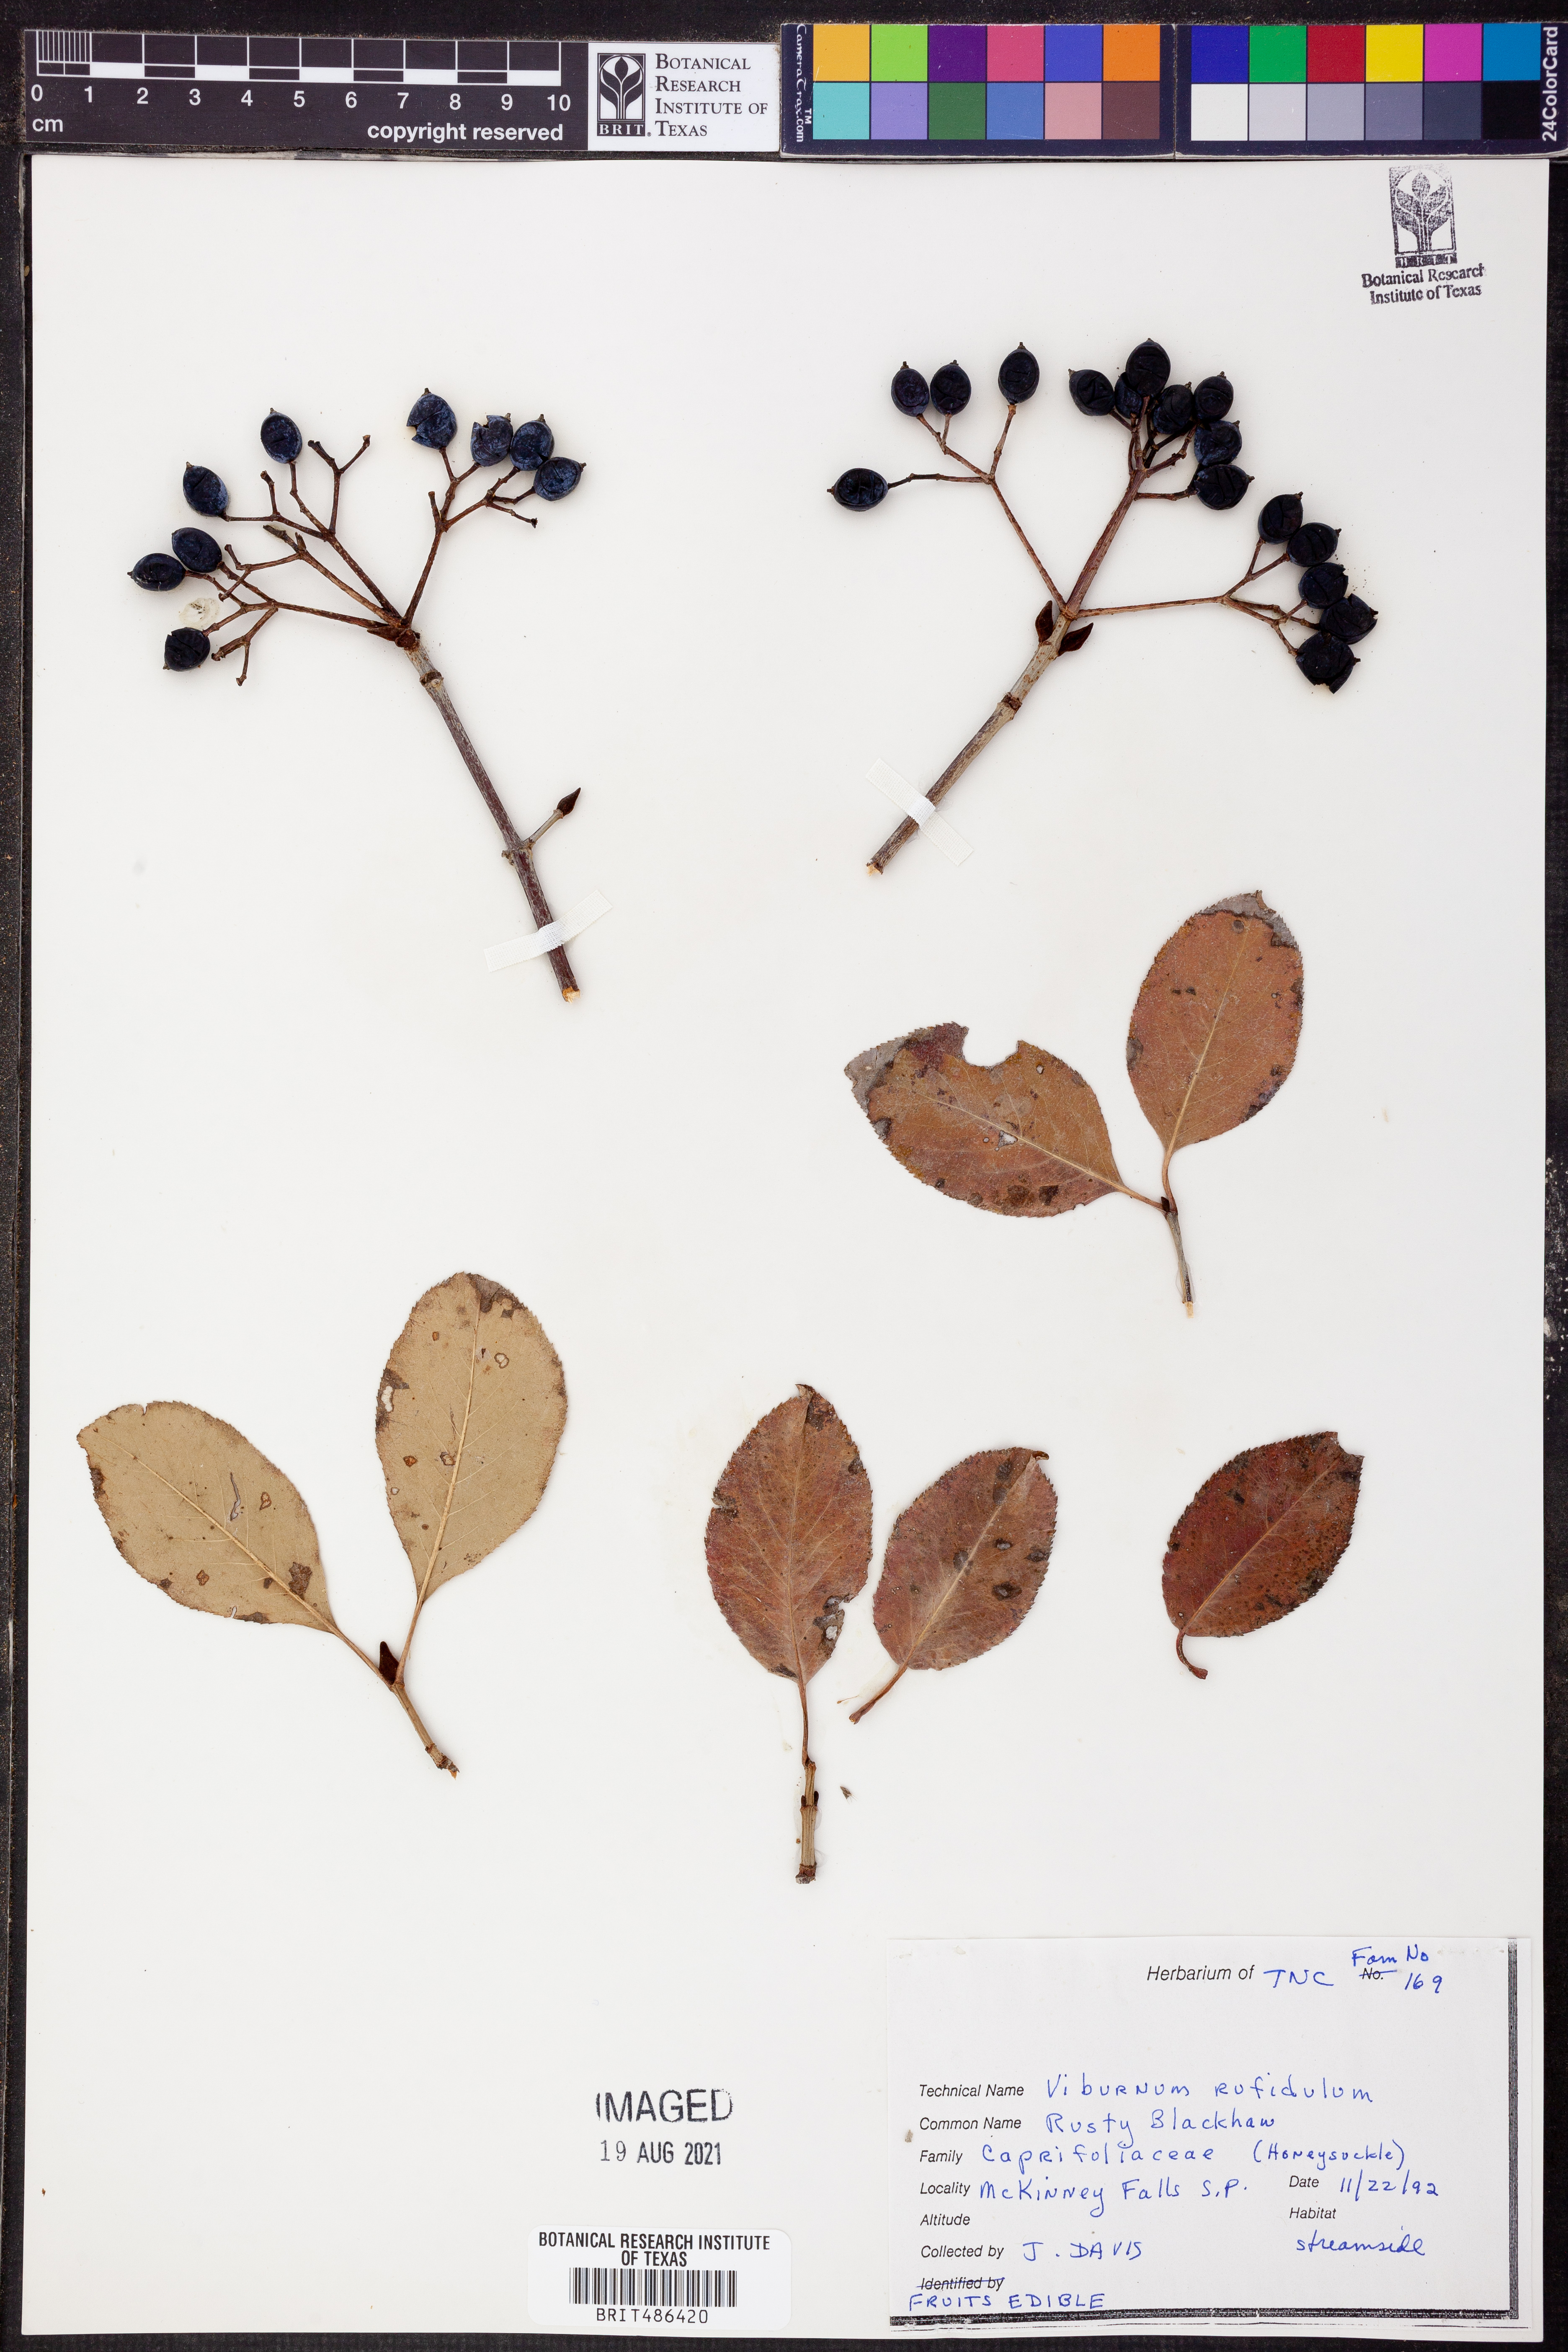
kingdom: Plantae
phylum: Tracheophyta
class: Magnoliopsida
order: Dipsacales
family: Viburnaceae
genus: Viburnum
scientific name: Viburnum rufidulum
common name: Blue haw
